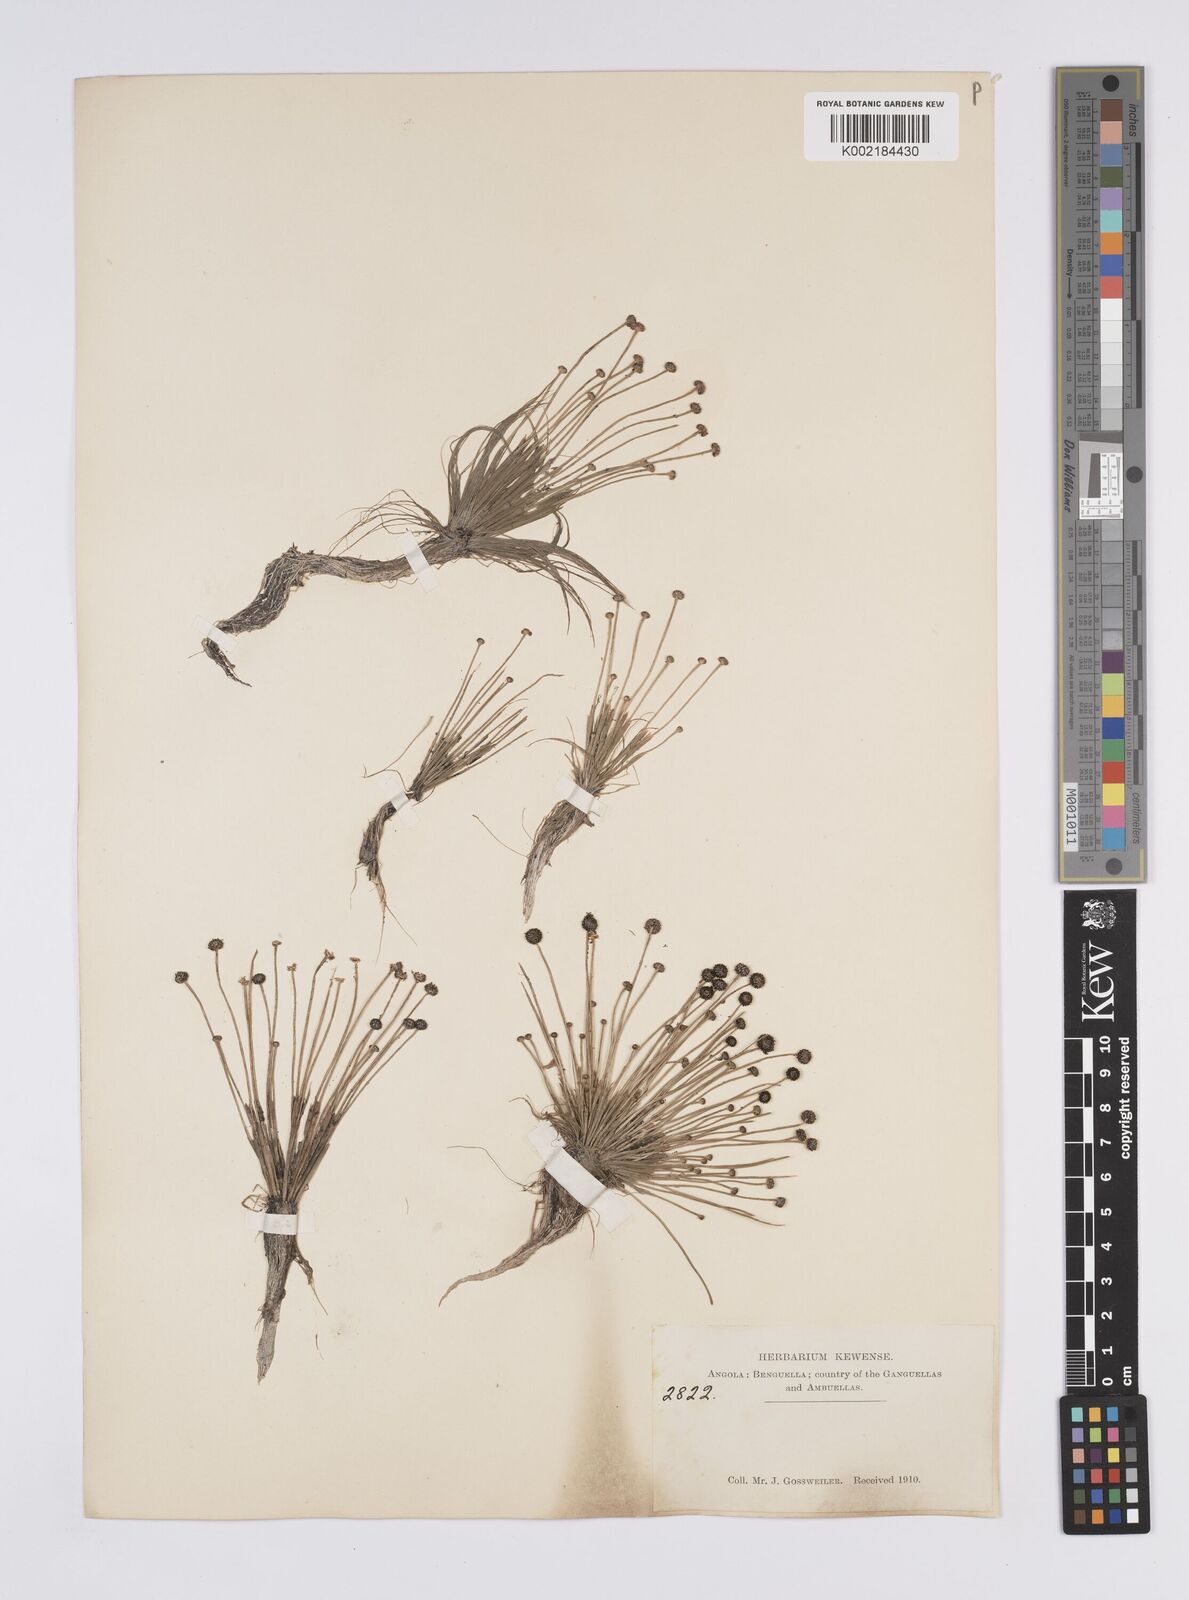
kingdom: Plantae
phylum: Tracheophyta
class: Liliopsida
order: Poales
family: Eriocaulaceae
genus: Eriocaulon
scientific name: Eriocaulon
